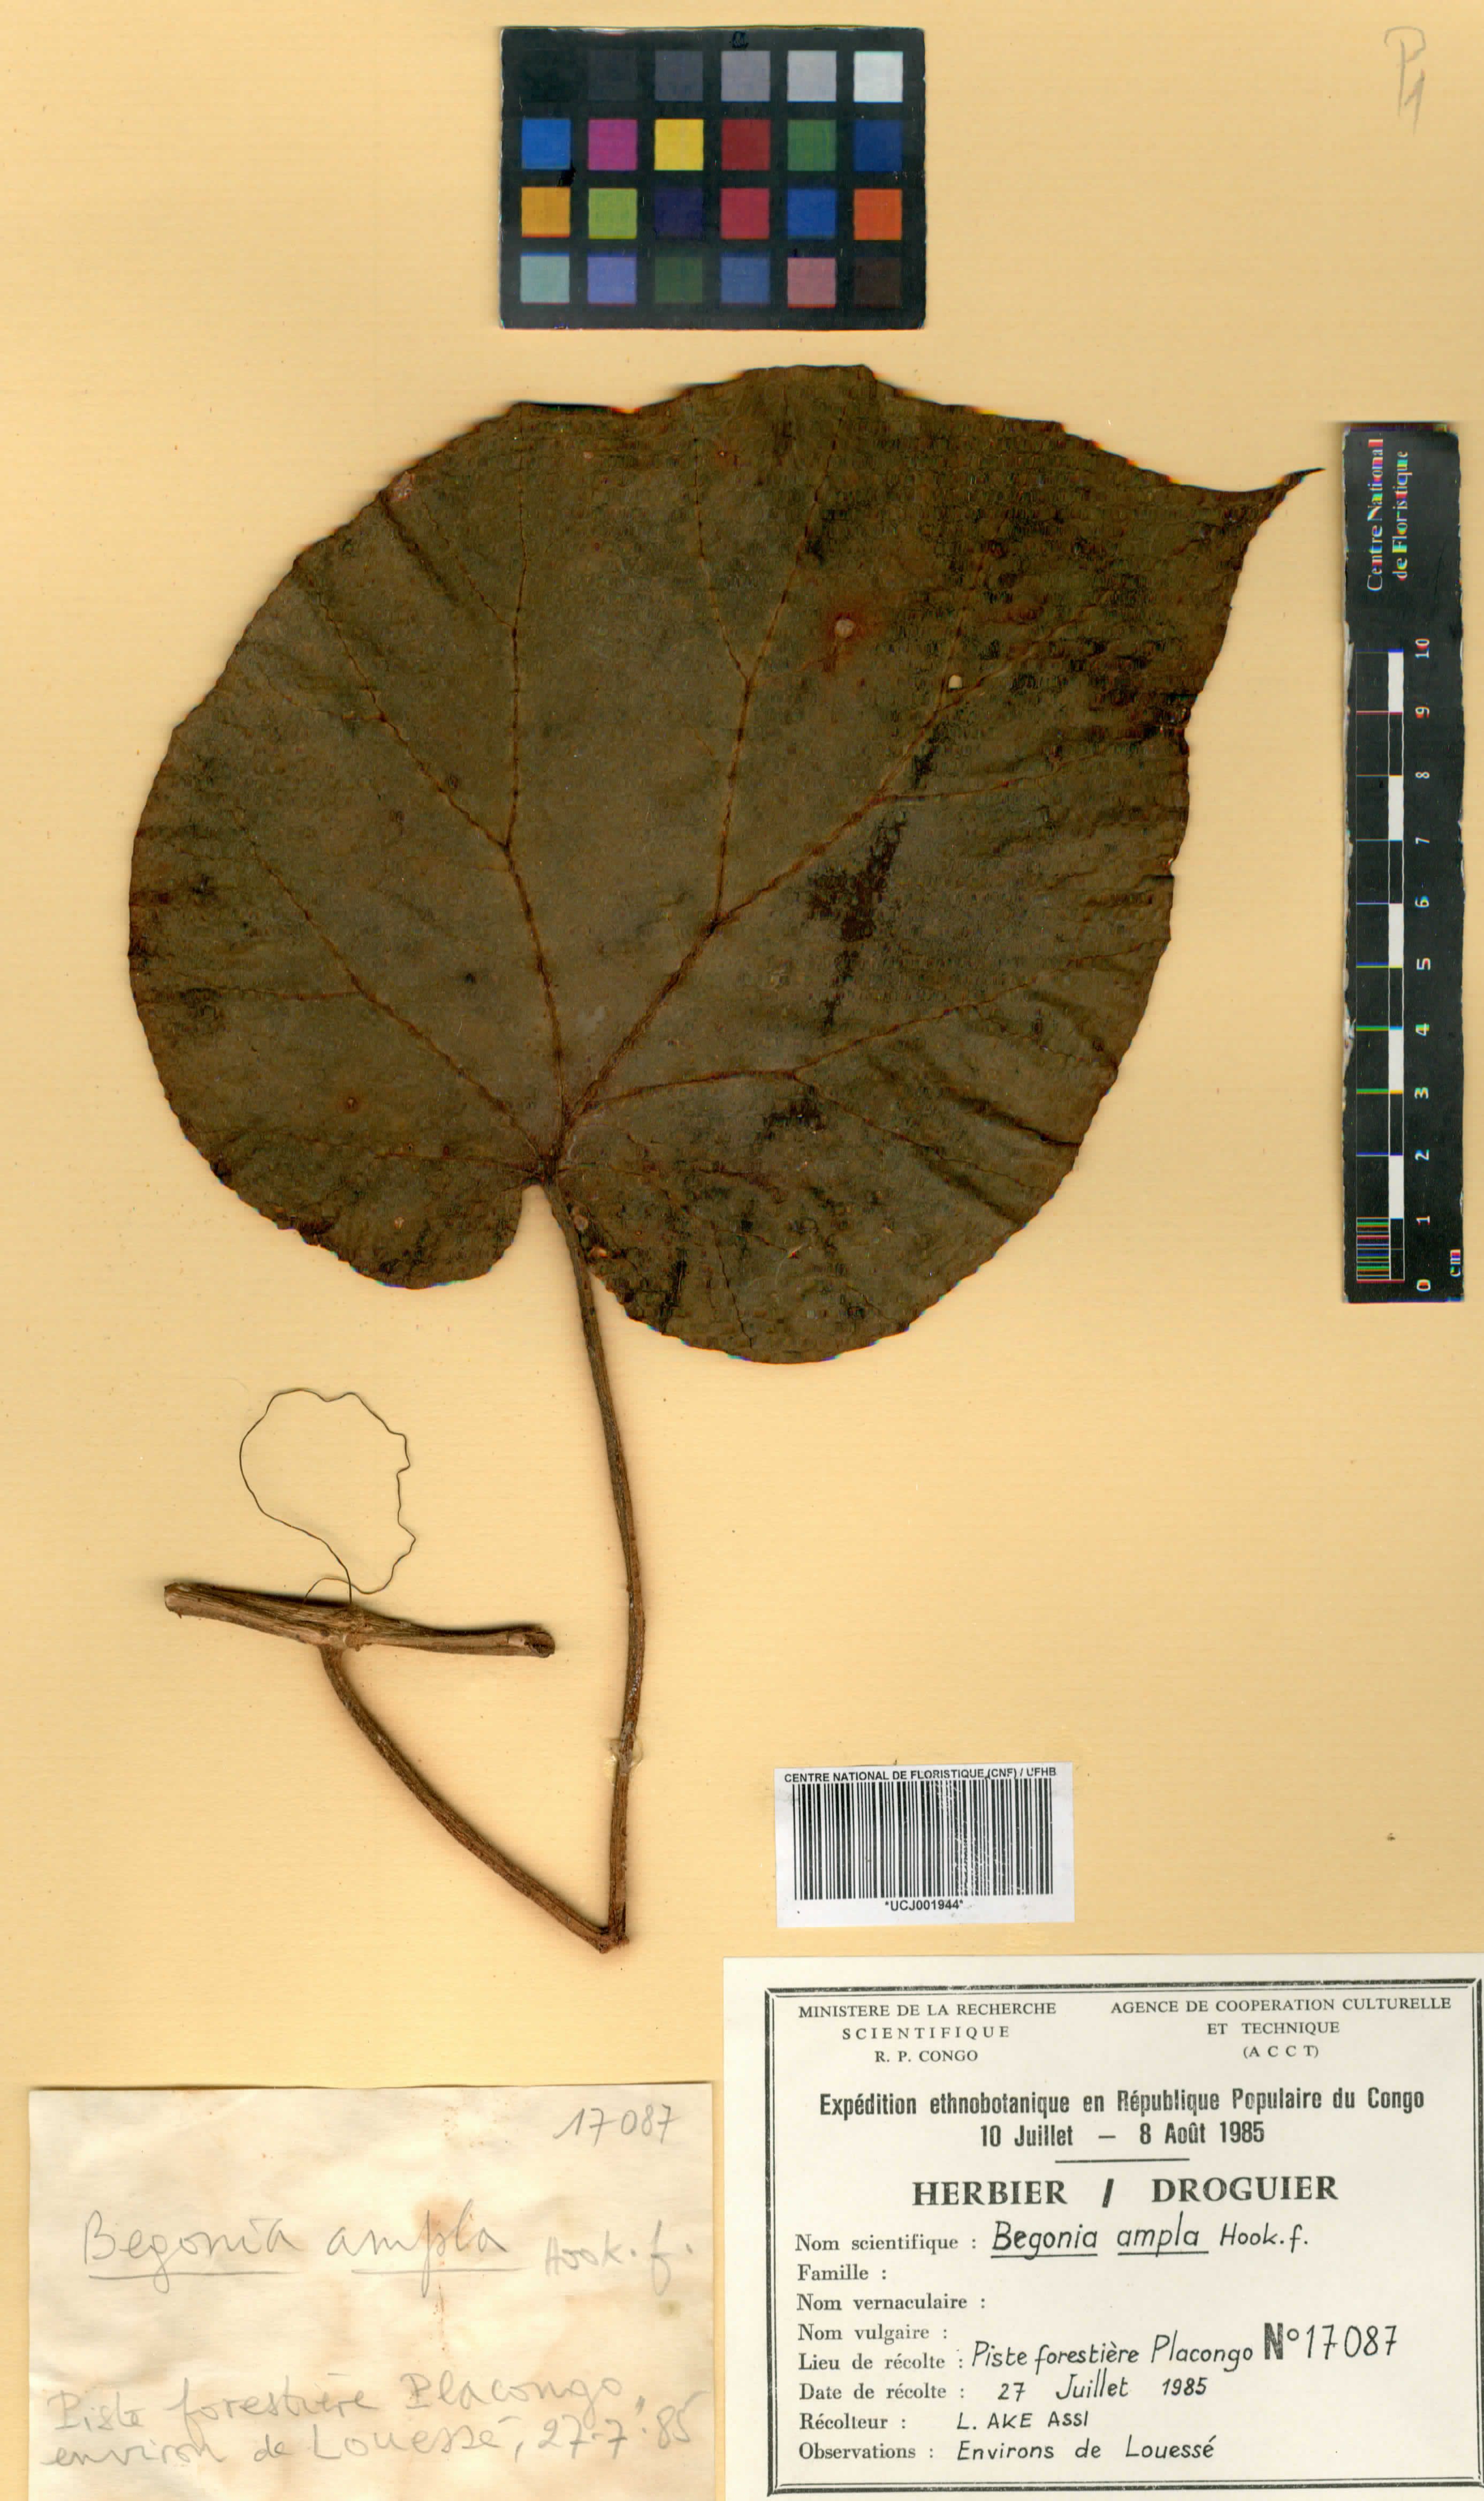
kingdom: Plantae
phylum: Tracheophyta
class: Magnoliopsida
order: Cucurbitales
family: Begoniaceae
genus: Begonia
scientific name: Begonia ampla
